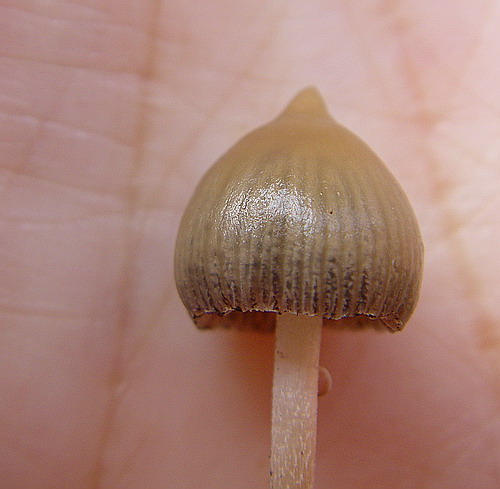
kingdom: Fungi
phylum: Basidiomycota
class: Agaricomycetes
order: Agaricales
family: Hymenogastraceae
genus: Psilocybe
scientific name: Psilocybe semilanceata
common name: spids nøgenhat
